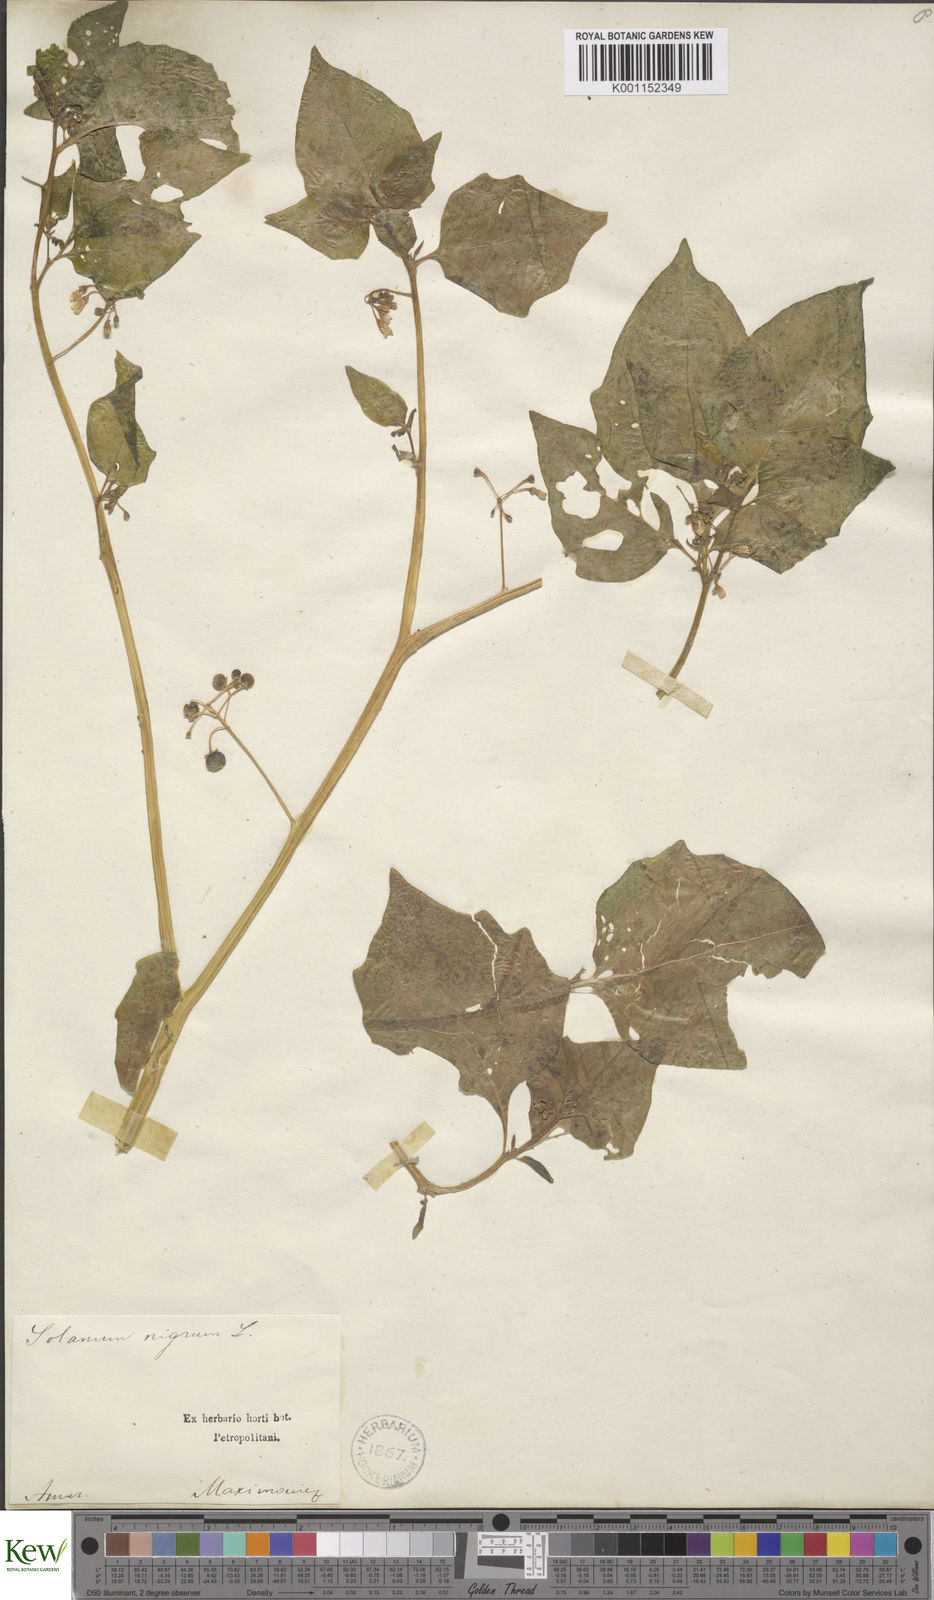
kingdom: Plantae
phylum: Tracheophyta
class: Magnoliopsida
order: Solanales
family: Solanaceae
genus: Solanum
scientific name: Solanum nigrum
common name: Black nightshade
